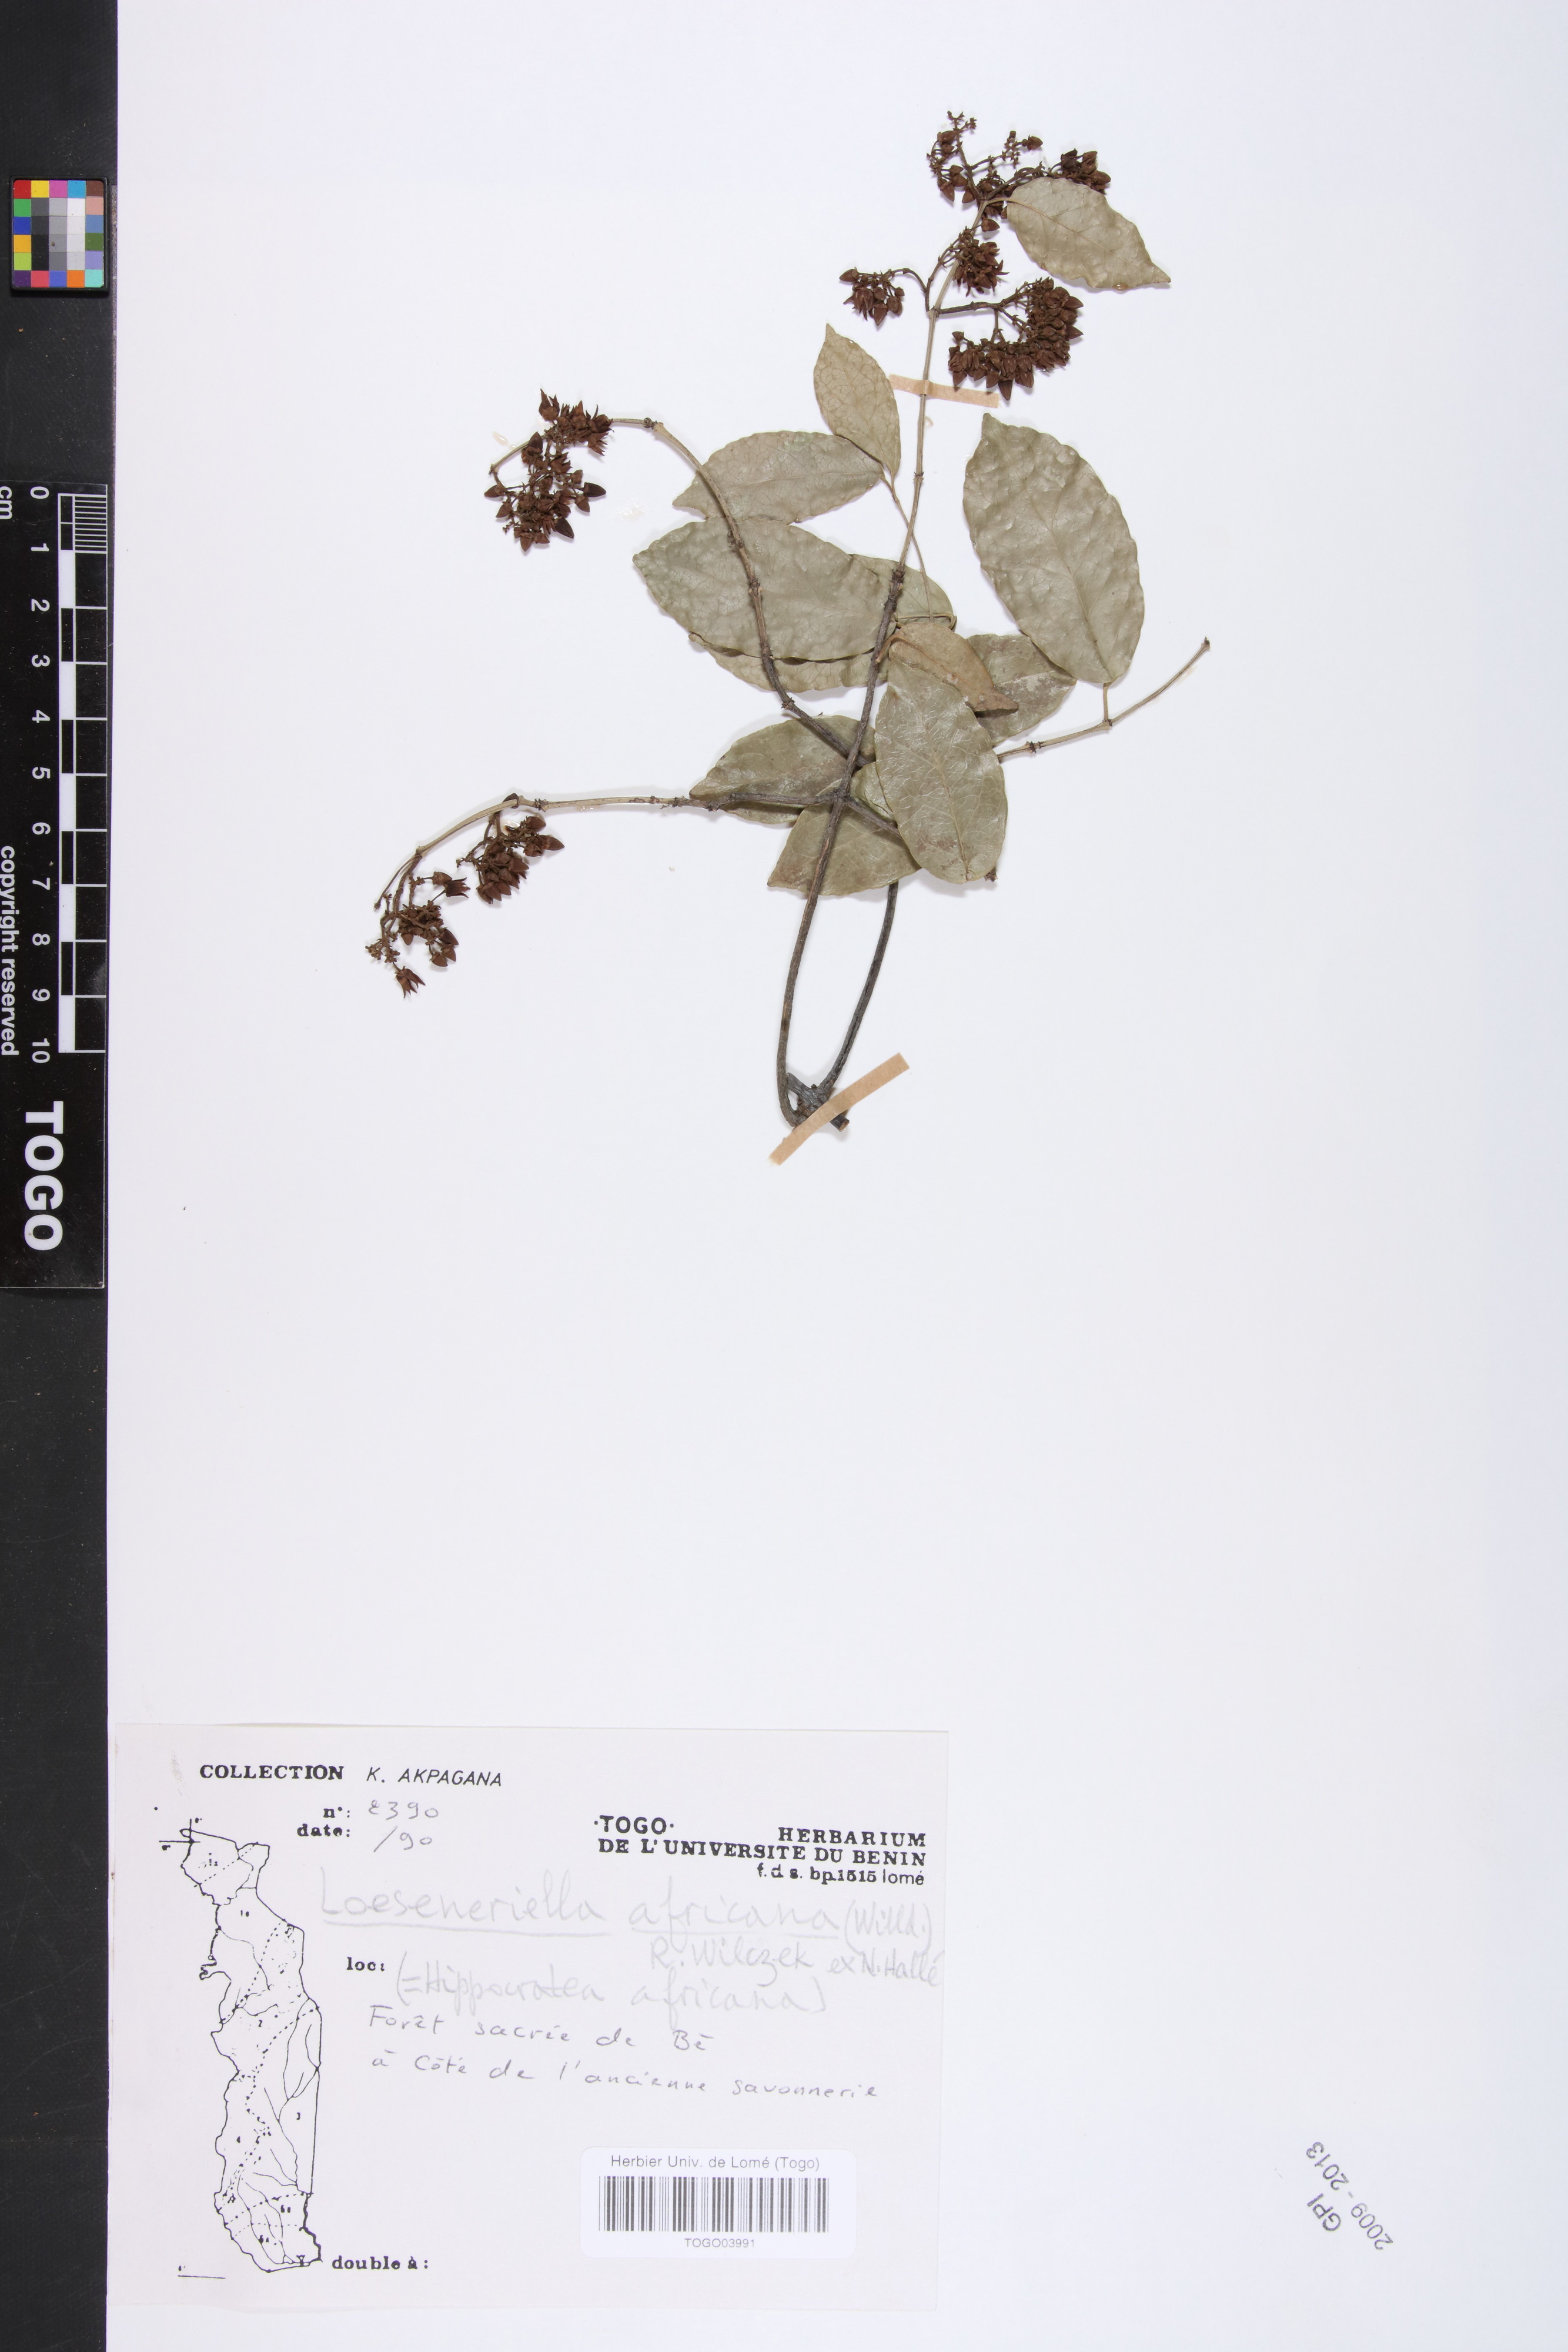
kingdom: Plantae
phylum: Tracheophyta
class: Magnoliopsida
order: Celastrales
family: Celastraceae
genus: Loeseneriella
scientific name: Loeseneriella africana
